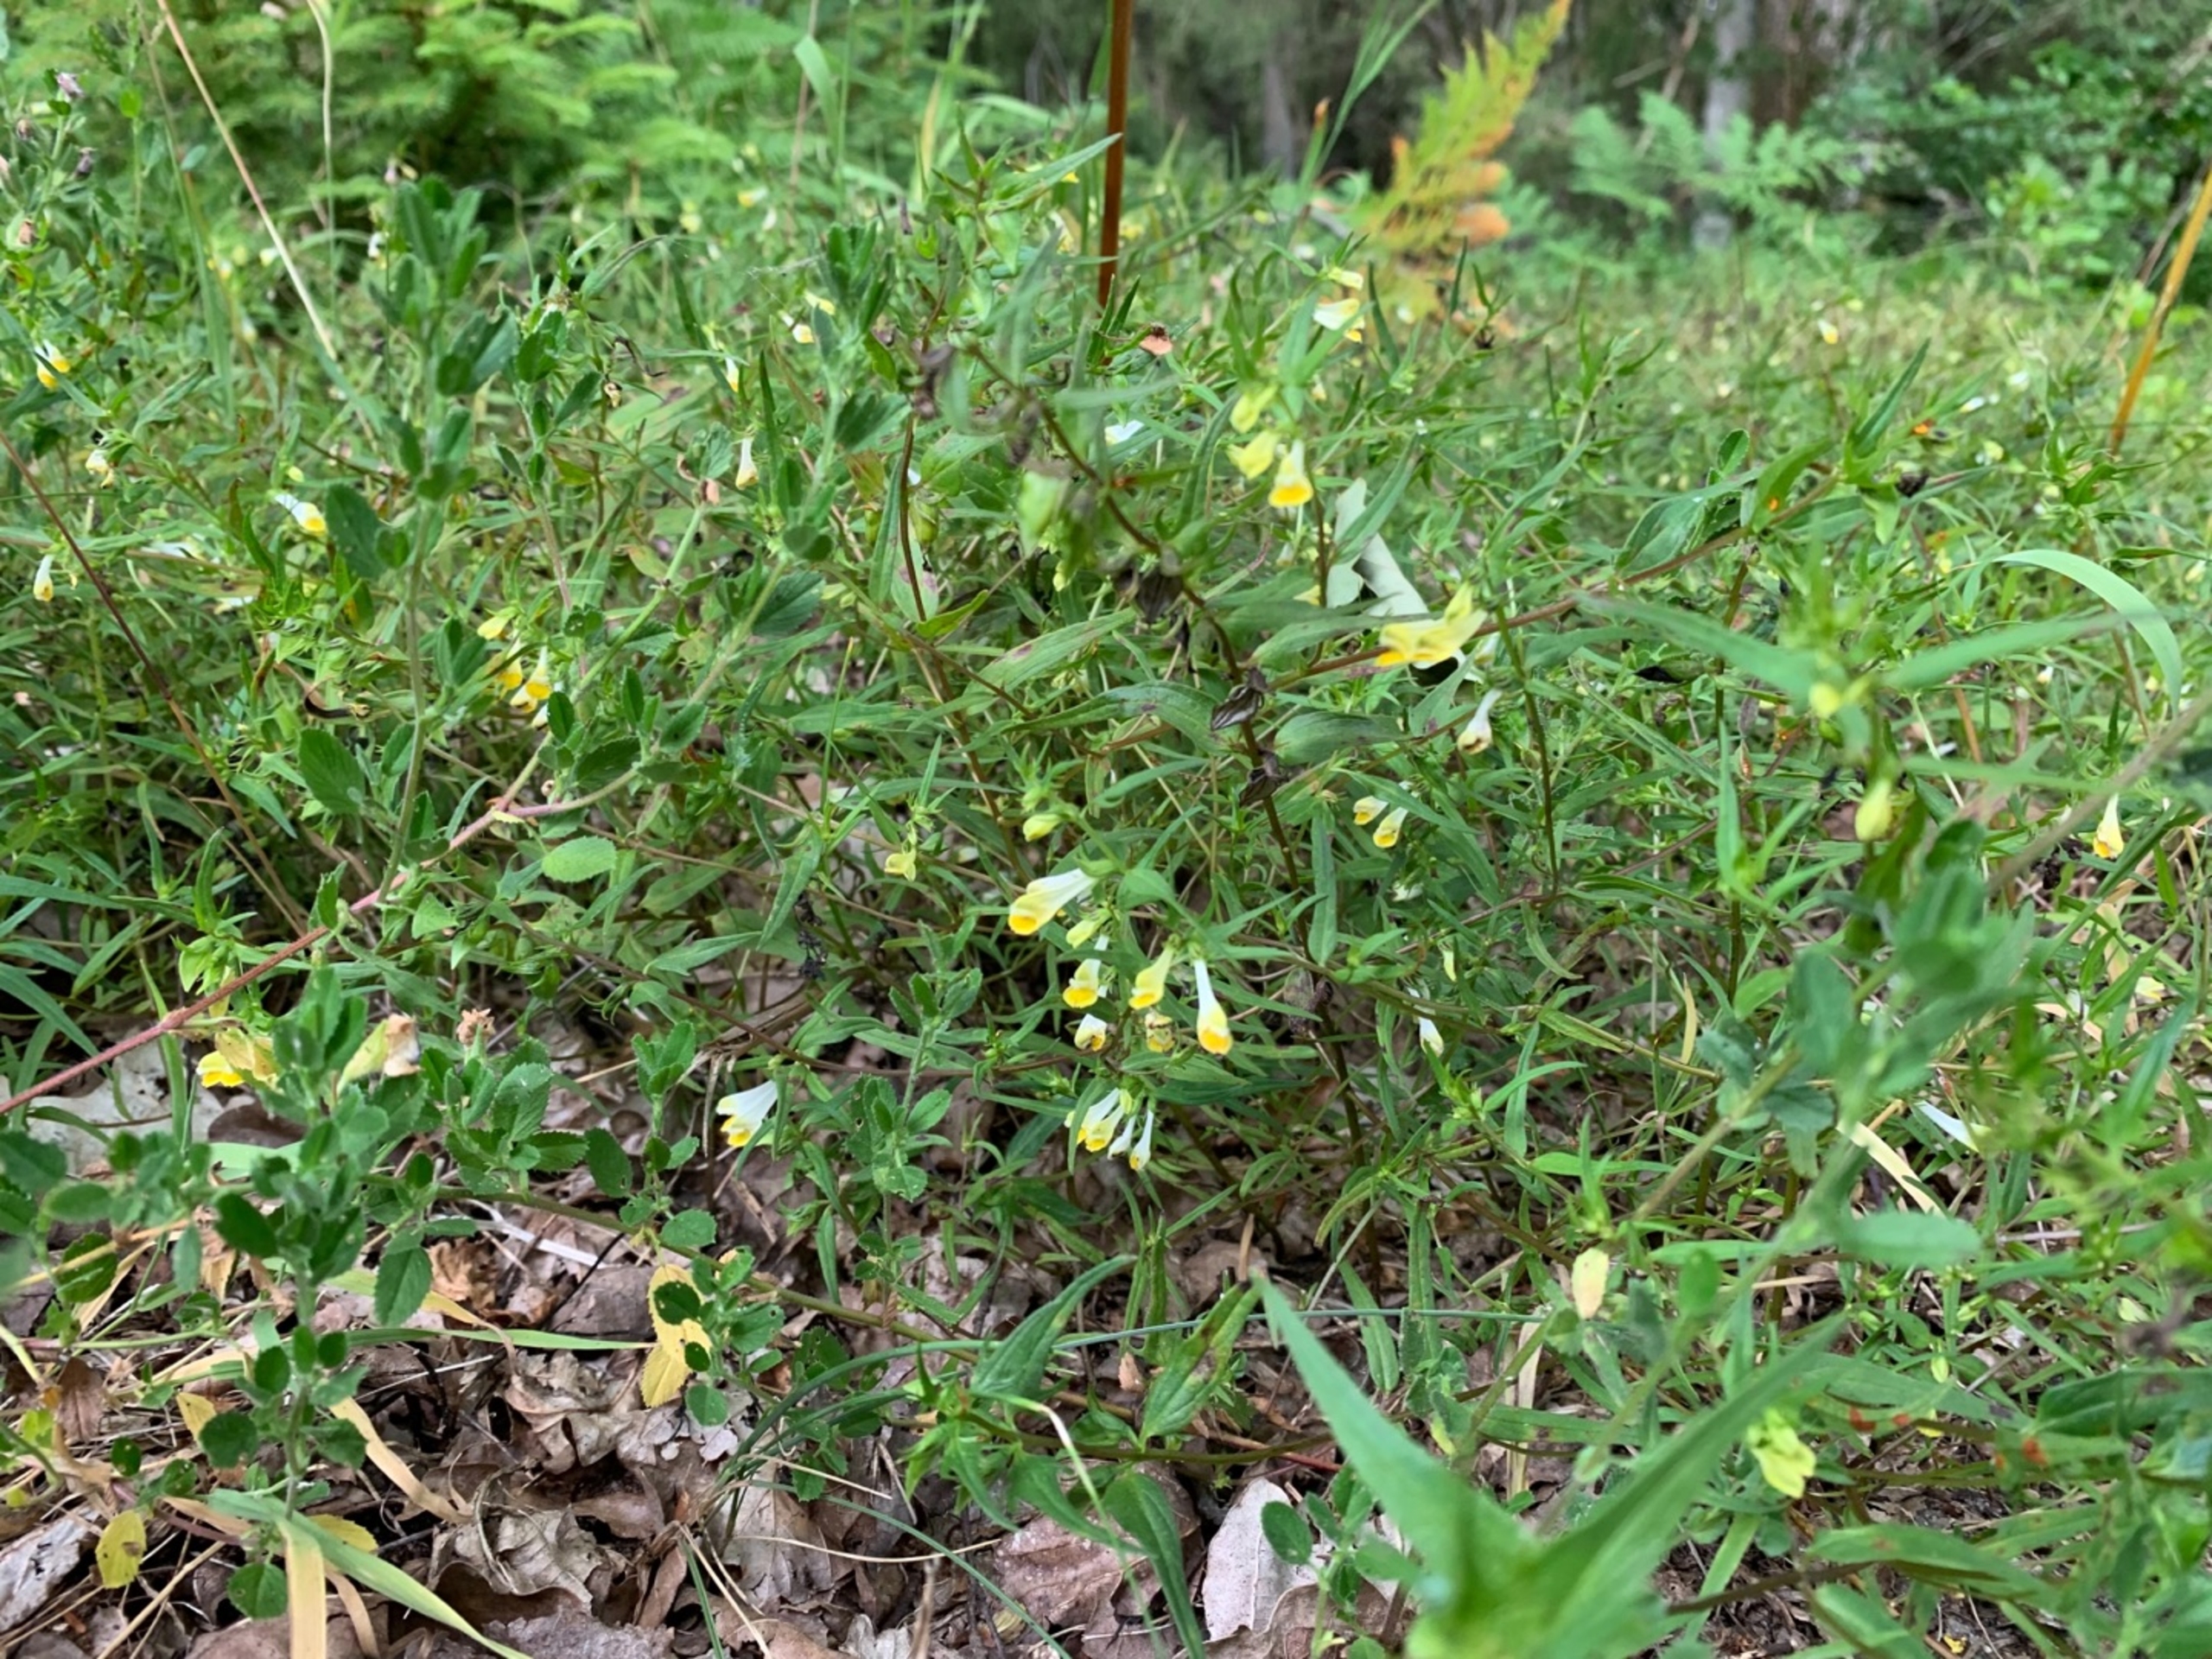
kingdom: Plantae
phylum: Tracheophyta
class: Magnoliopsida
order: Lamiales
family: Orobanchaceae
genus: Melampyrum
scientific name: Melampyrum pratense
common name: Almindelig kohvede
